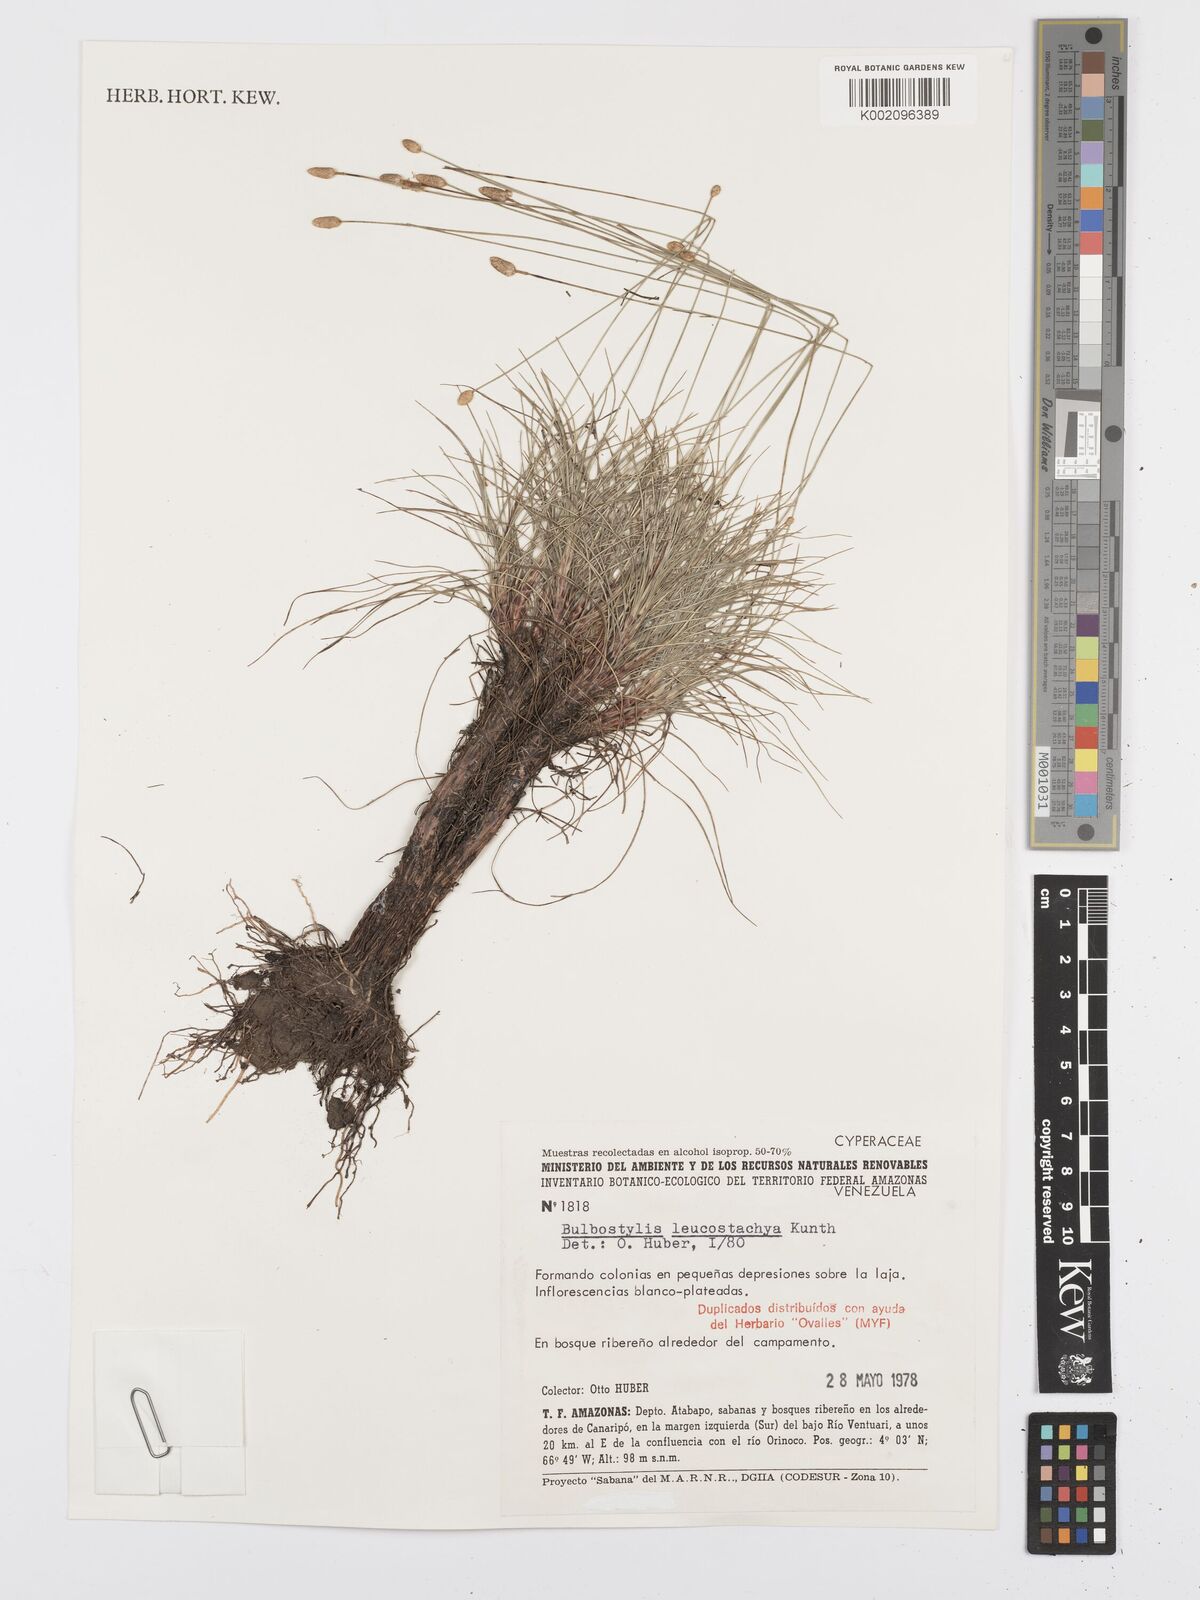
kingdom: Plantae
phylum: Tracheophyta
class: Liliopsida
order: Poales
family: Cyperaceae
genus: Bulbostylis
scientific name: Bulbostylis leucostachya
